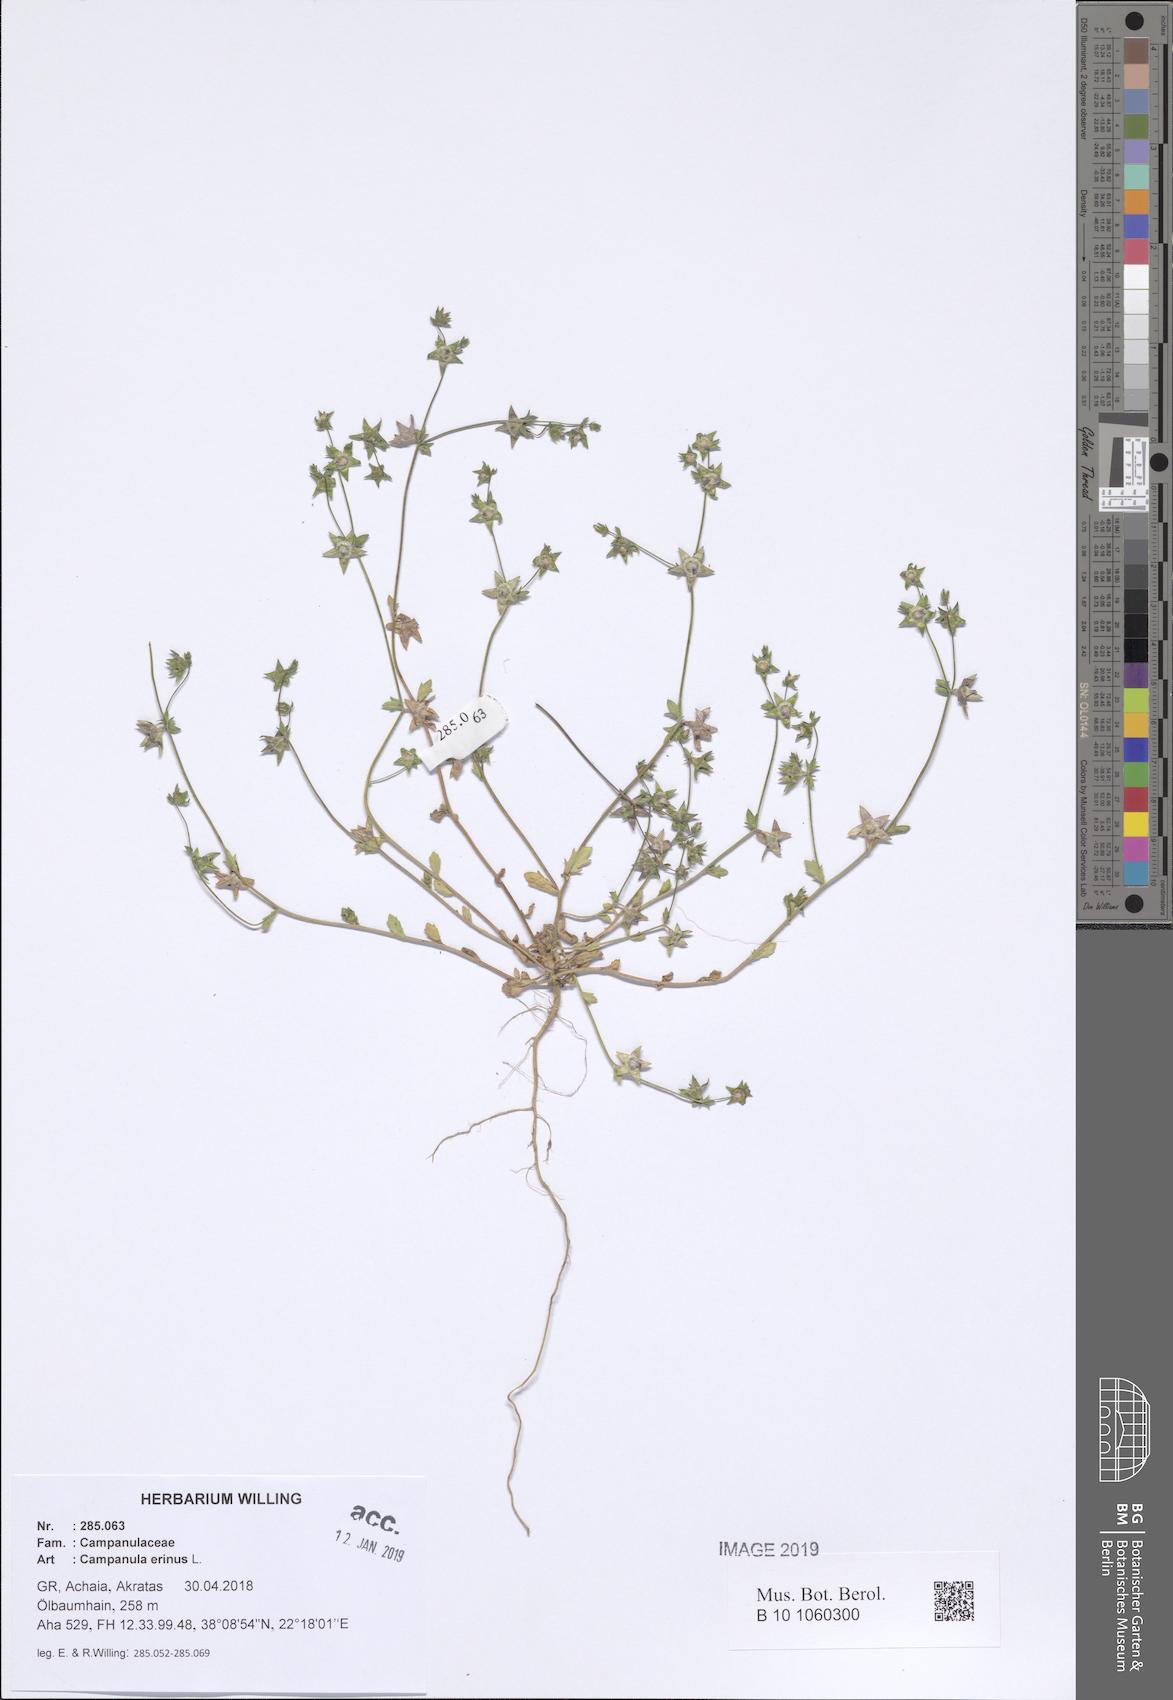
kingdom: Plantae
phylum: Tracheophyta
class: Magnoliopsida
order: Asterales
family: Campanulaceae
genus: Campanula
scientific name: Campanula erinus
